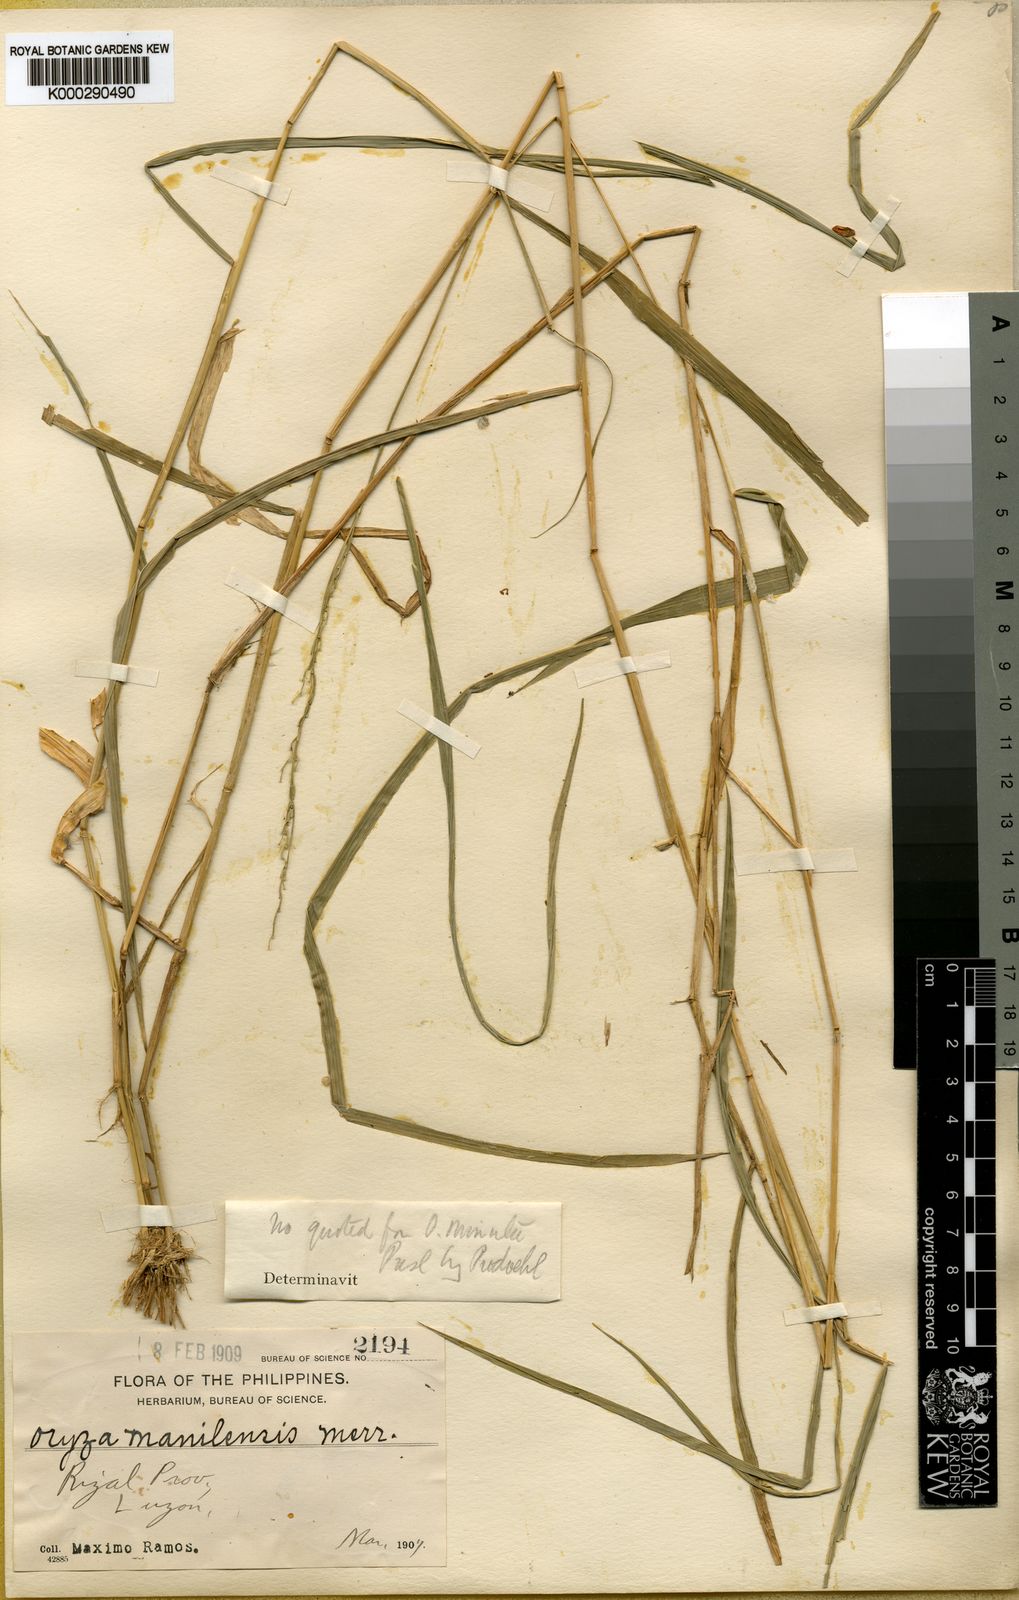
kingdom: Plantae
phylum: Tracheophyta
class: Liliopsida
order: Poales
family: Poaceae
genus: Oryza
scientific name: Oryza minuta
